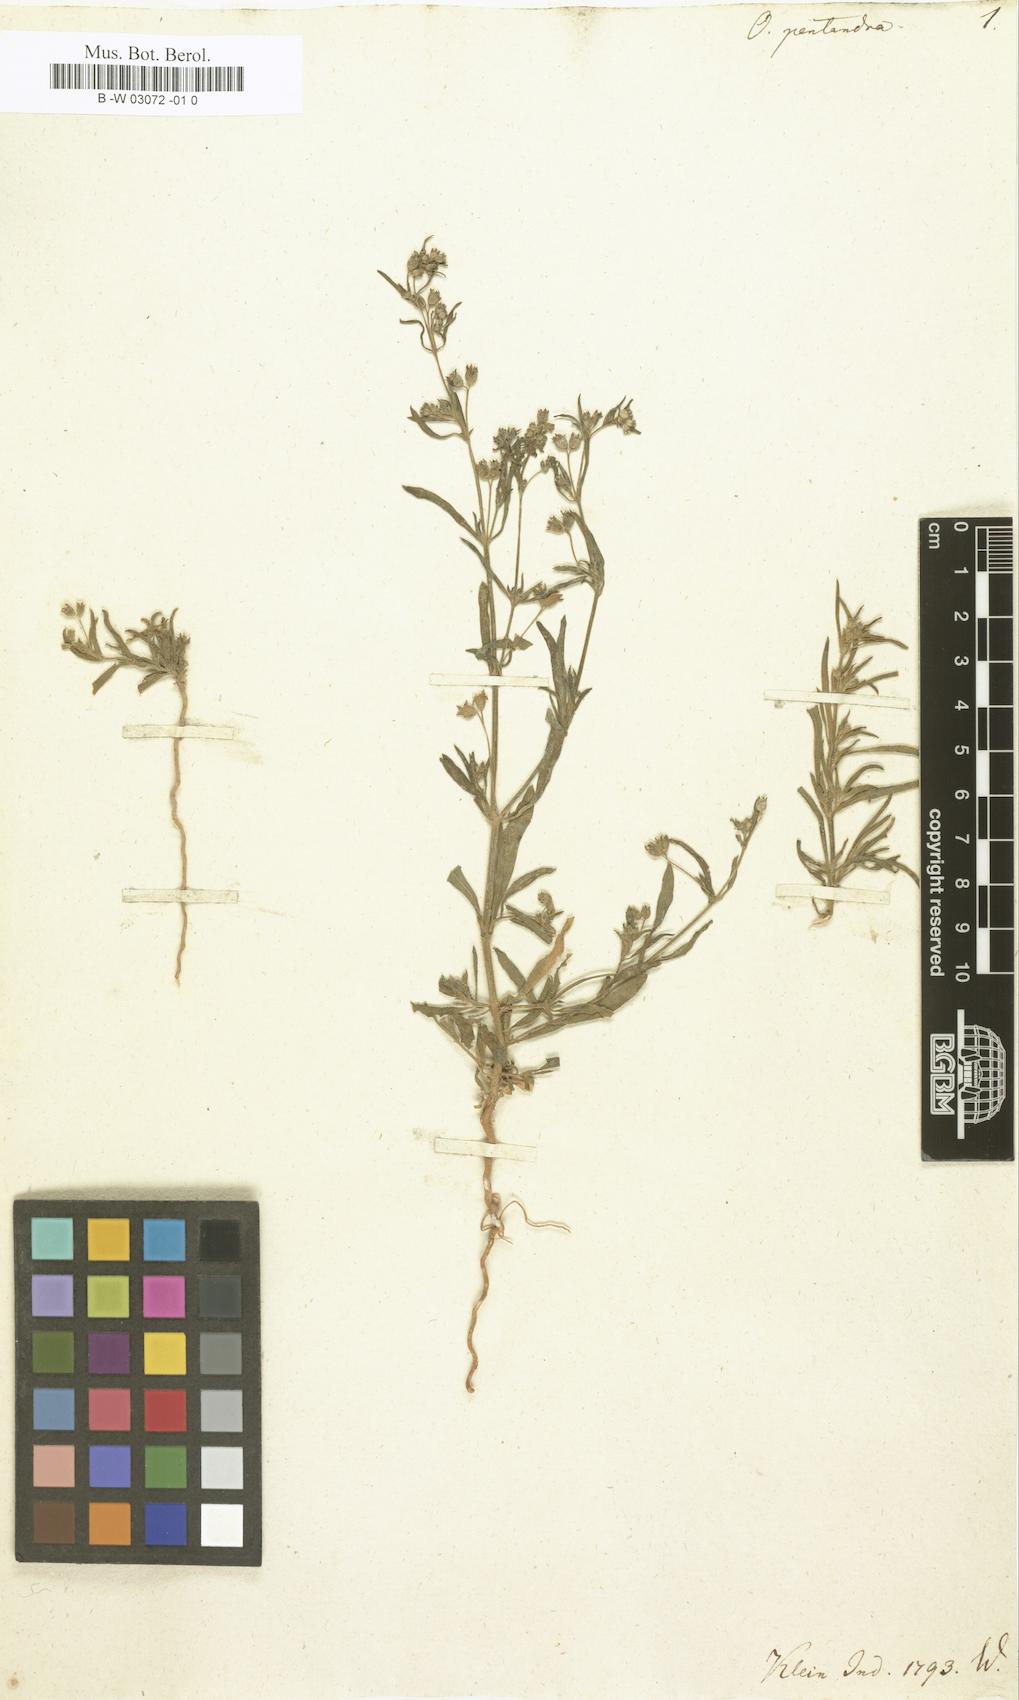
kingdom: Plantae
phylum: Tracheophyta
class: Magnoliopsida
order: Gentianales
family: Rubiaceae
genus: Pentodon
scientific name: Pentodon pentandrus
